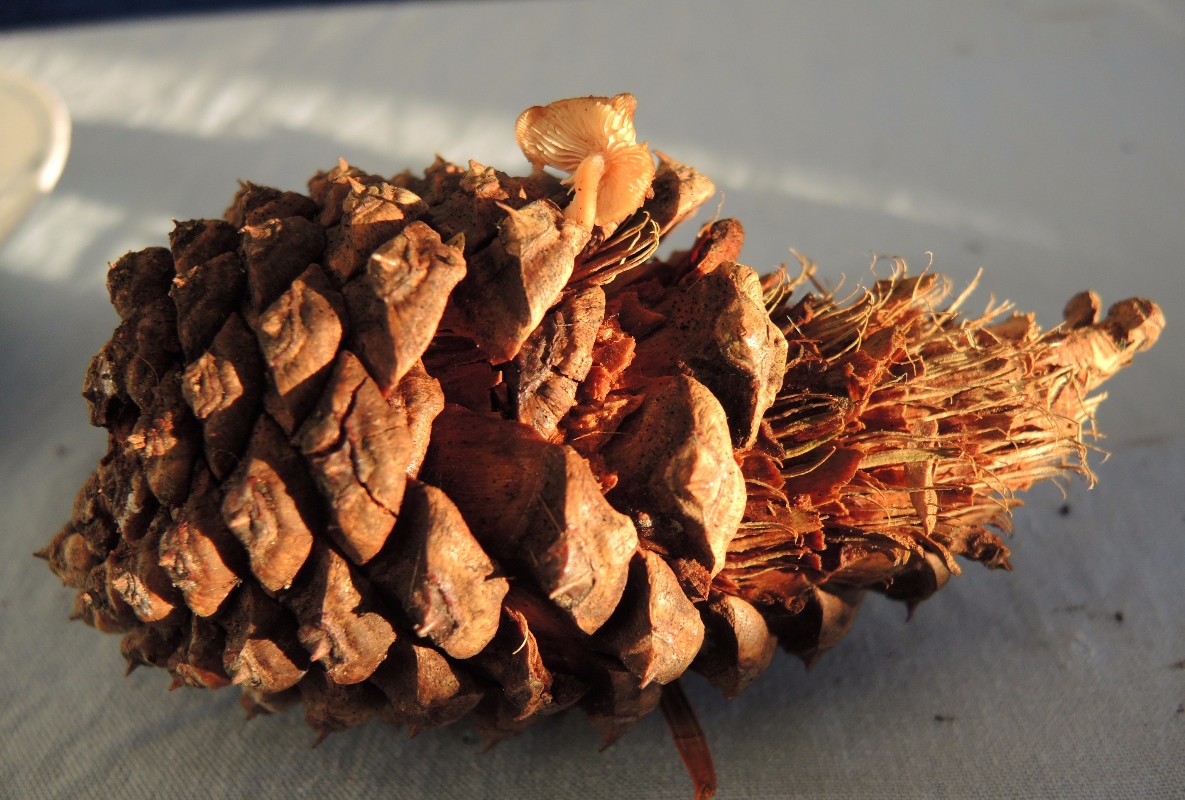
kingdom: Fungi
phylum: Basidiomycota
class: Agaricomycetes
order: Agaricales
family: Marasmiaceae
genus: Baeospora
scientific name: Baeospora myosura
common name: koglebruskhat
